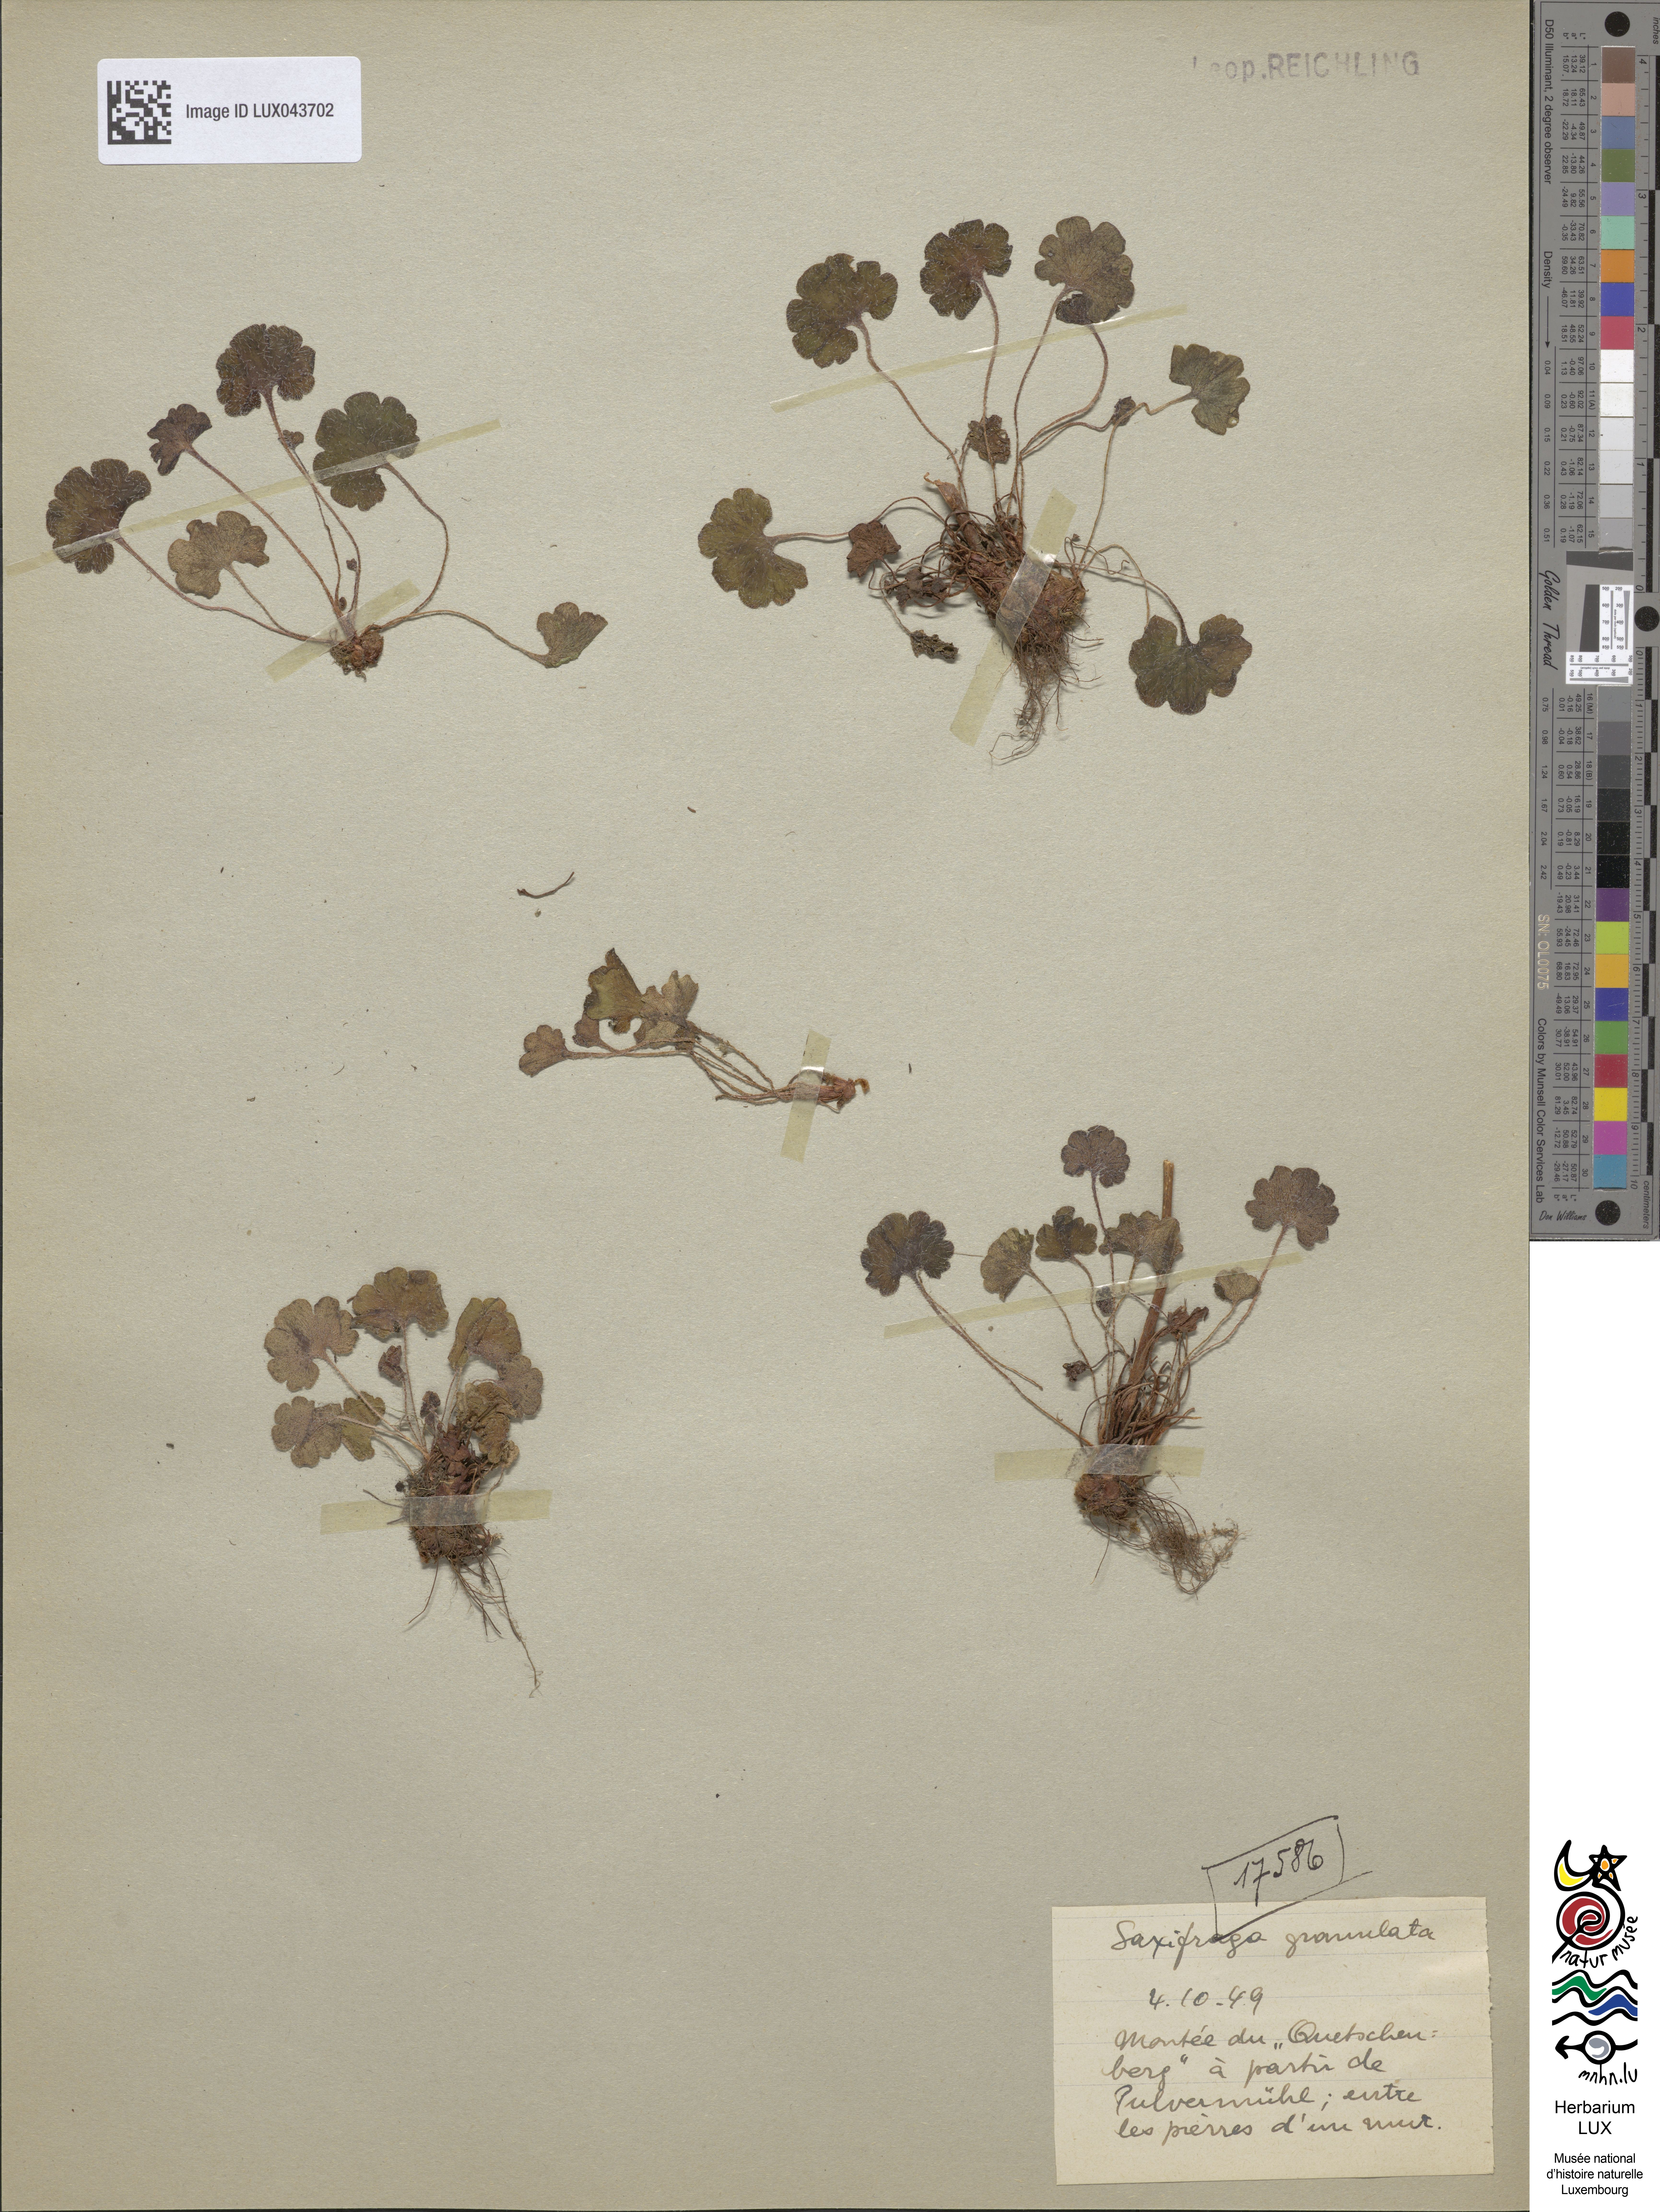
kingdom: Plantae
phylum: Tracheophyta
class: Magnoliopsida
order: Saxifragales
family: Saxifragaceae
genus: Saxifraga
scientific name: Saxifraga granulata
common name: Meadow saxifrage
